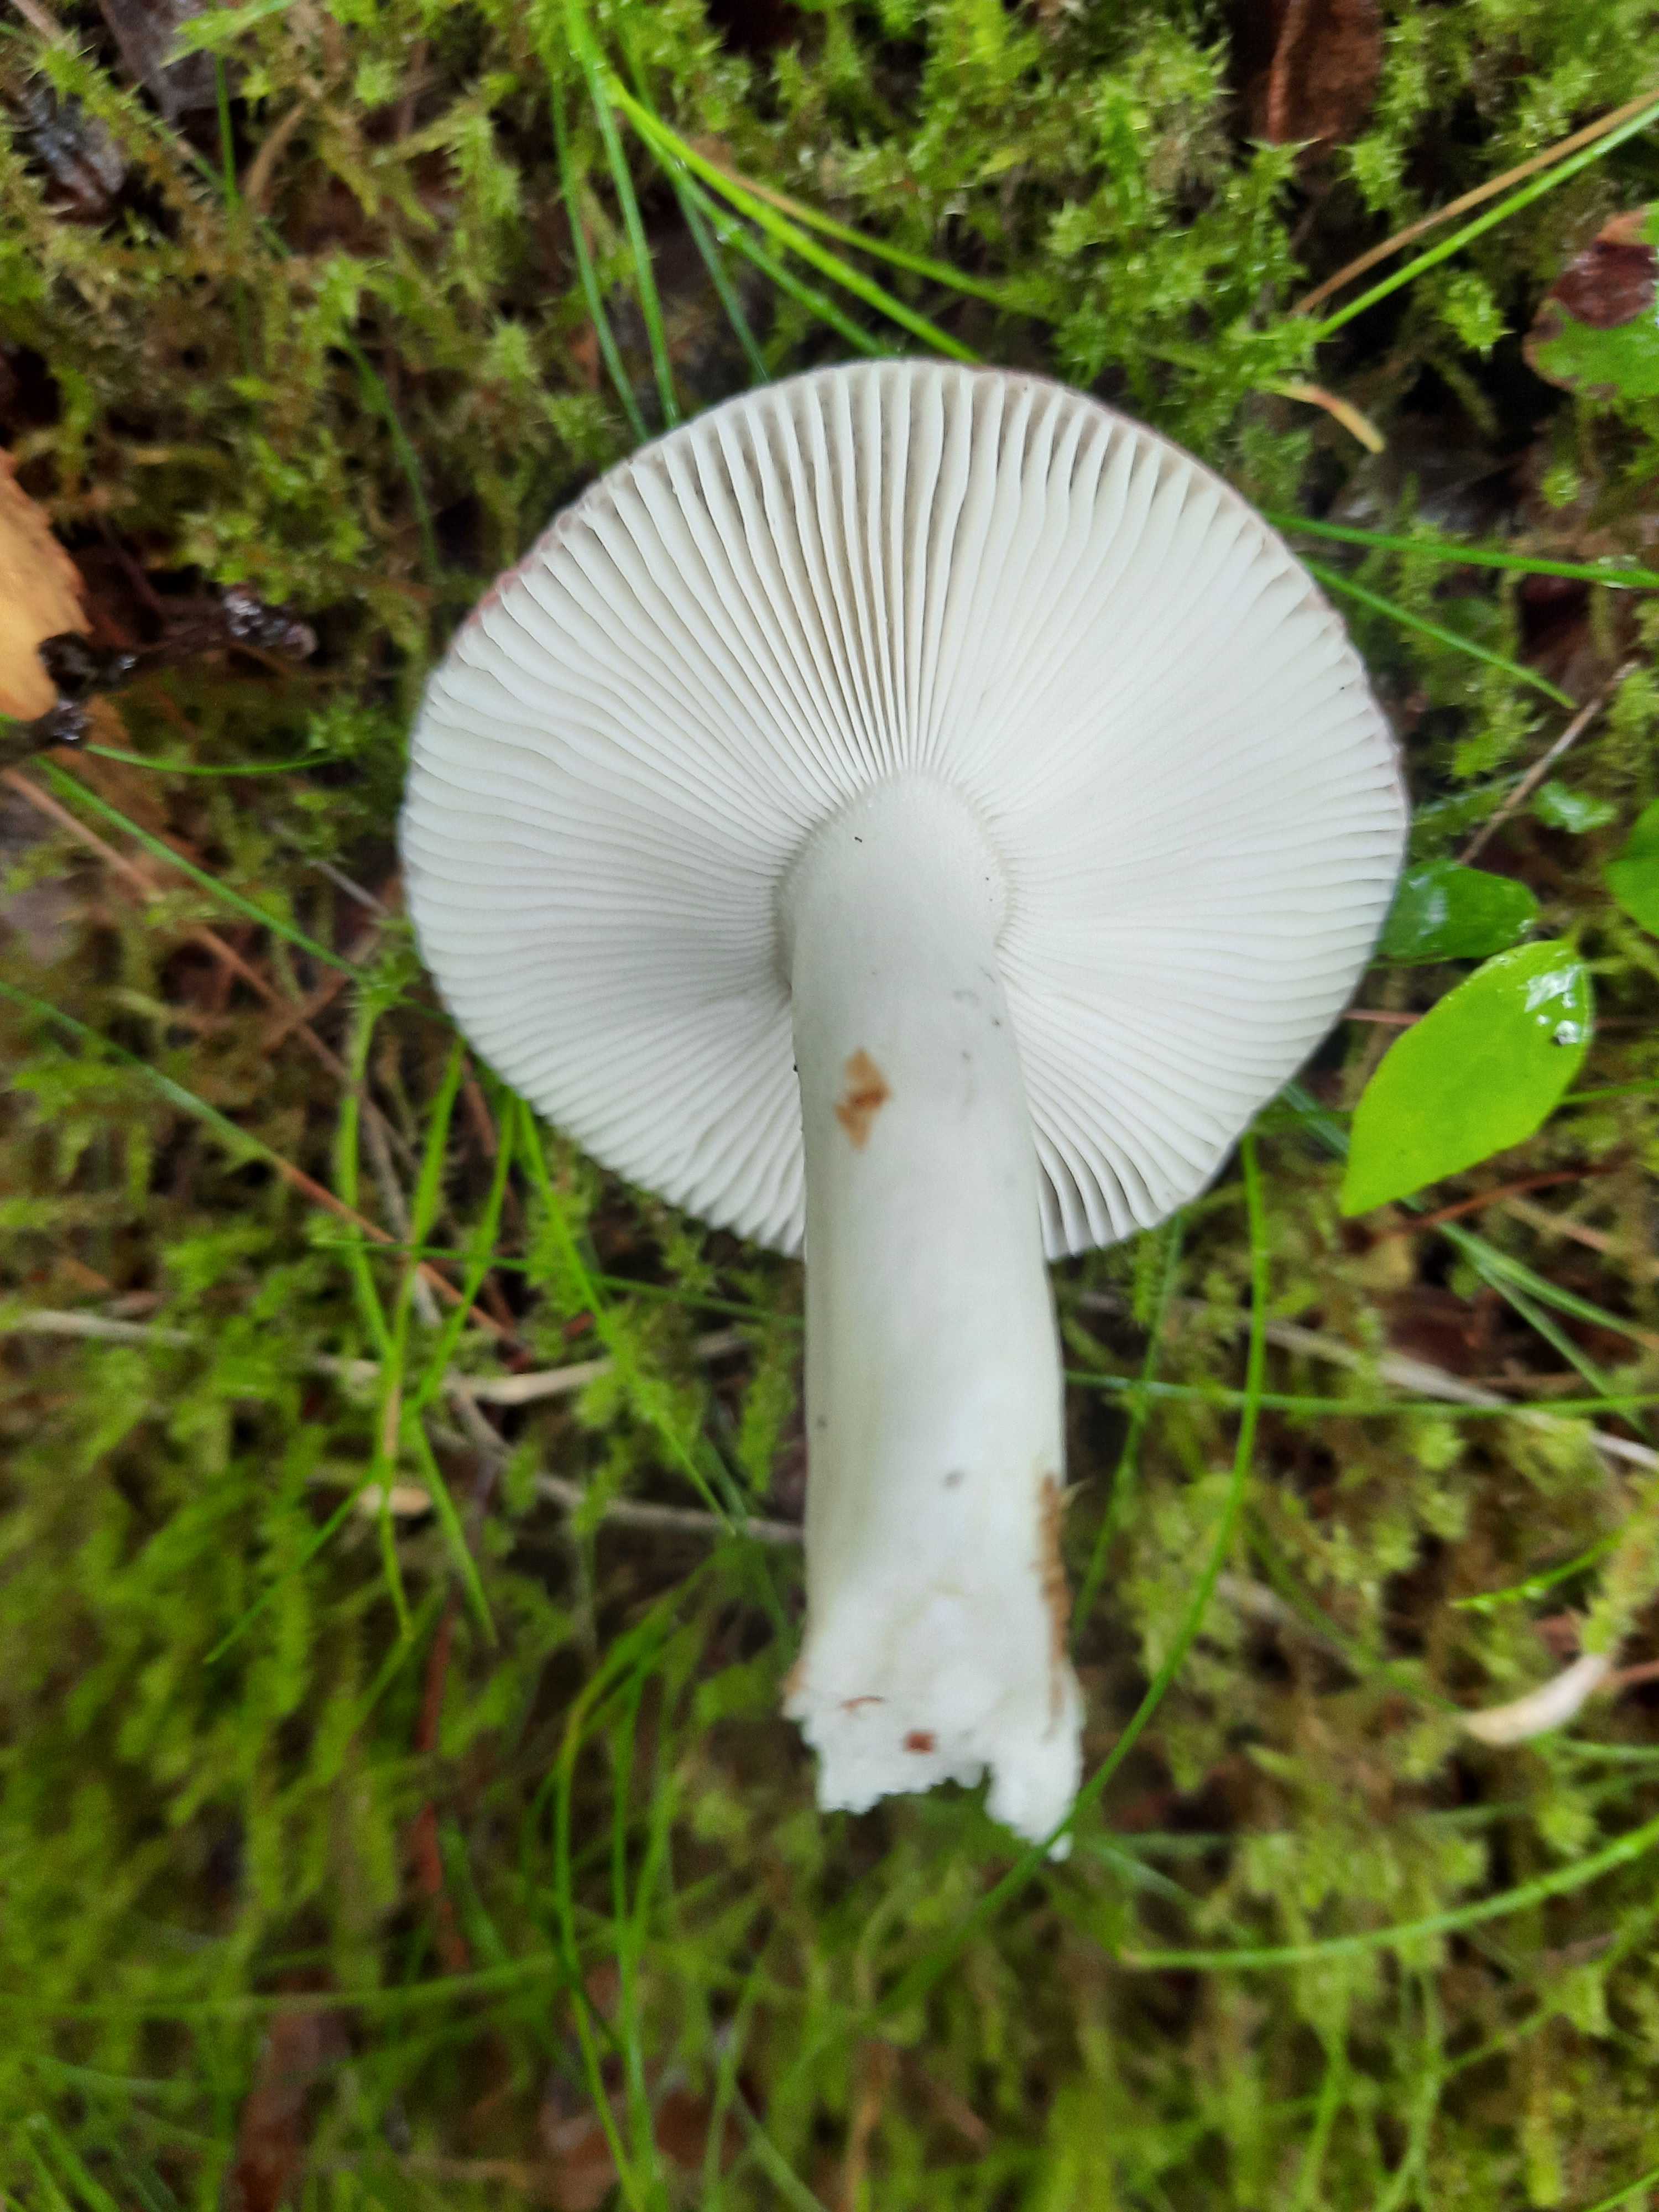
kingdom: Fungi
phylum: Basidiomycota
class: Agaricomycetes
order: Russulales
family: Russulaceae
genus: Russula
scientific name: Russula
